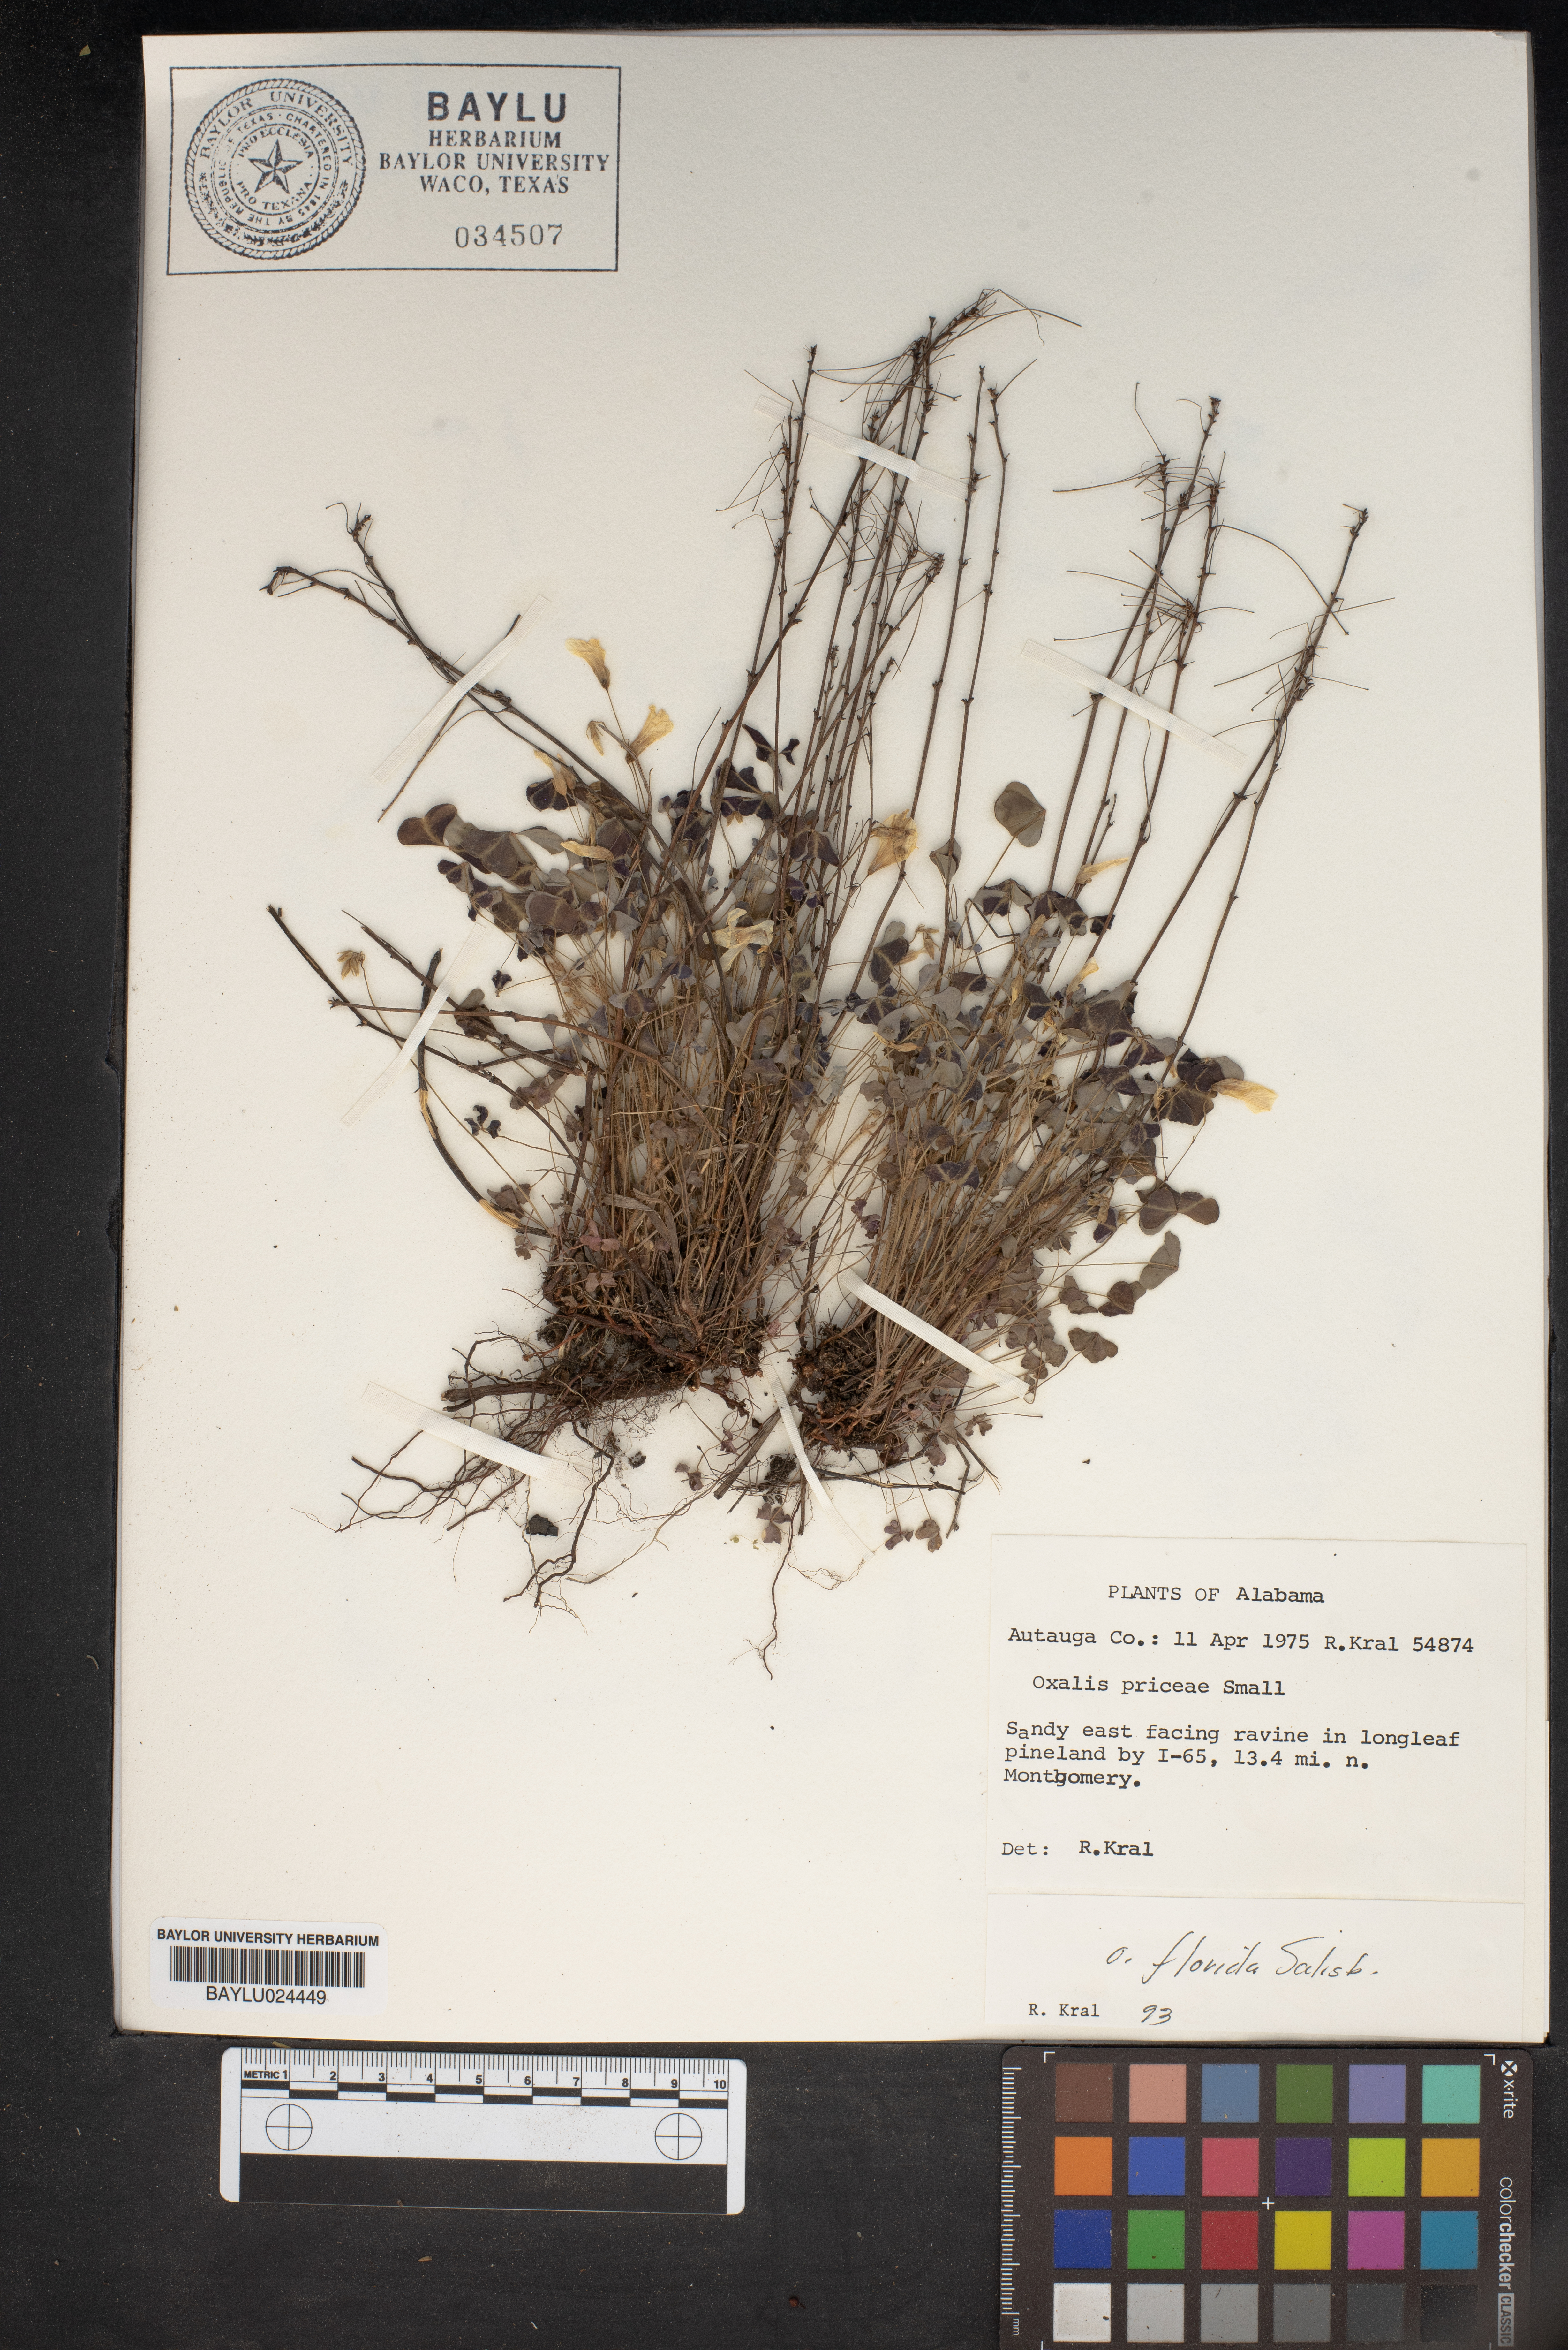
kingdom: Plantae
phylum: Tracheophyta
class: Magnoliopsida
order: Oxalidales
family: Oxalidaceae
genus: Oxalis
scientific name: Oxalis macrantha
